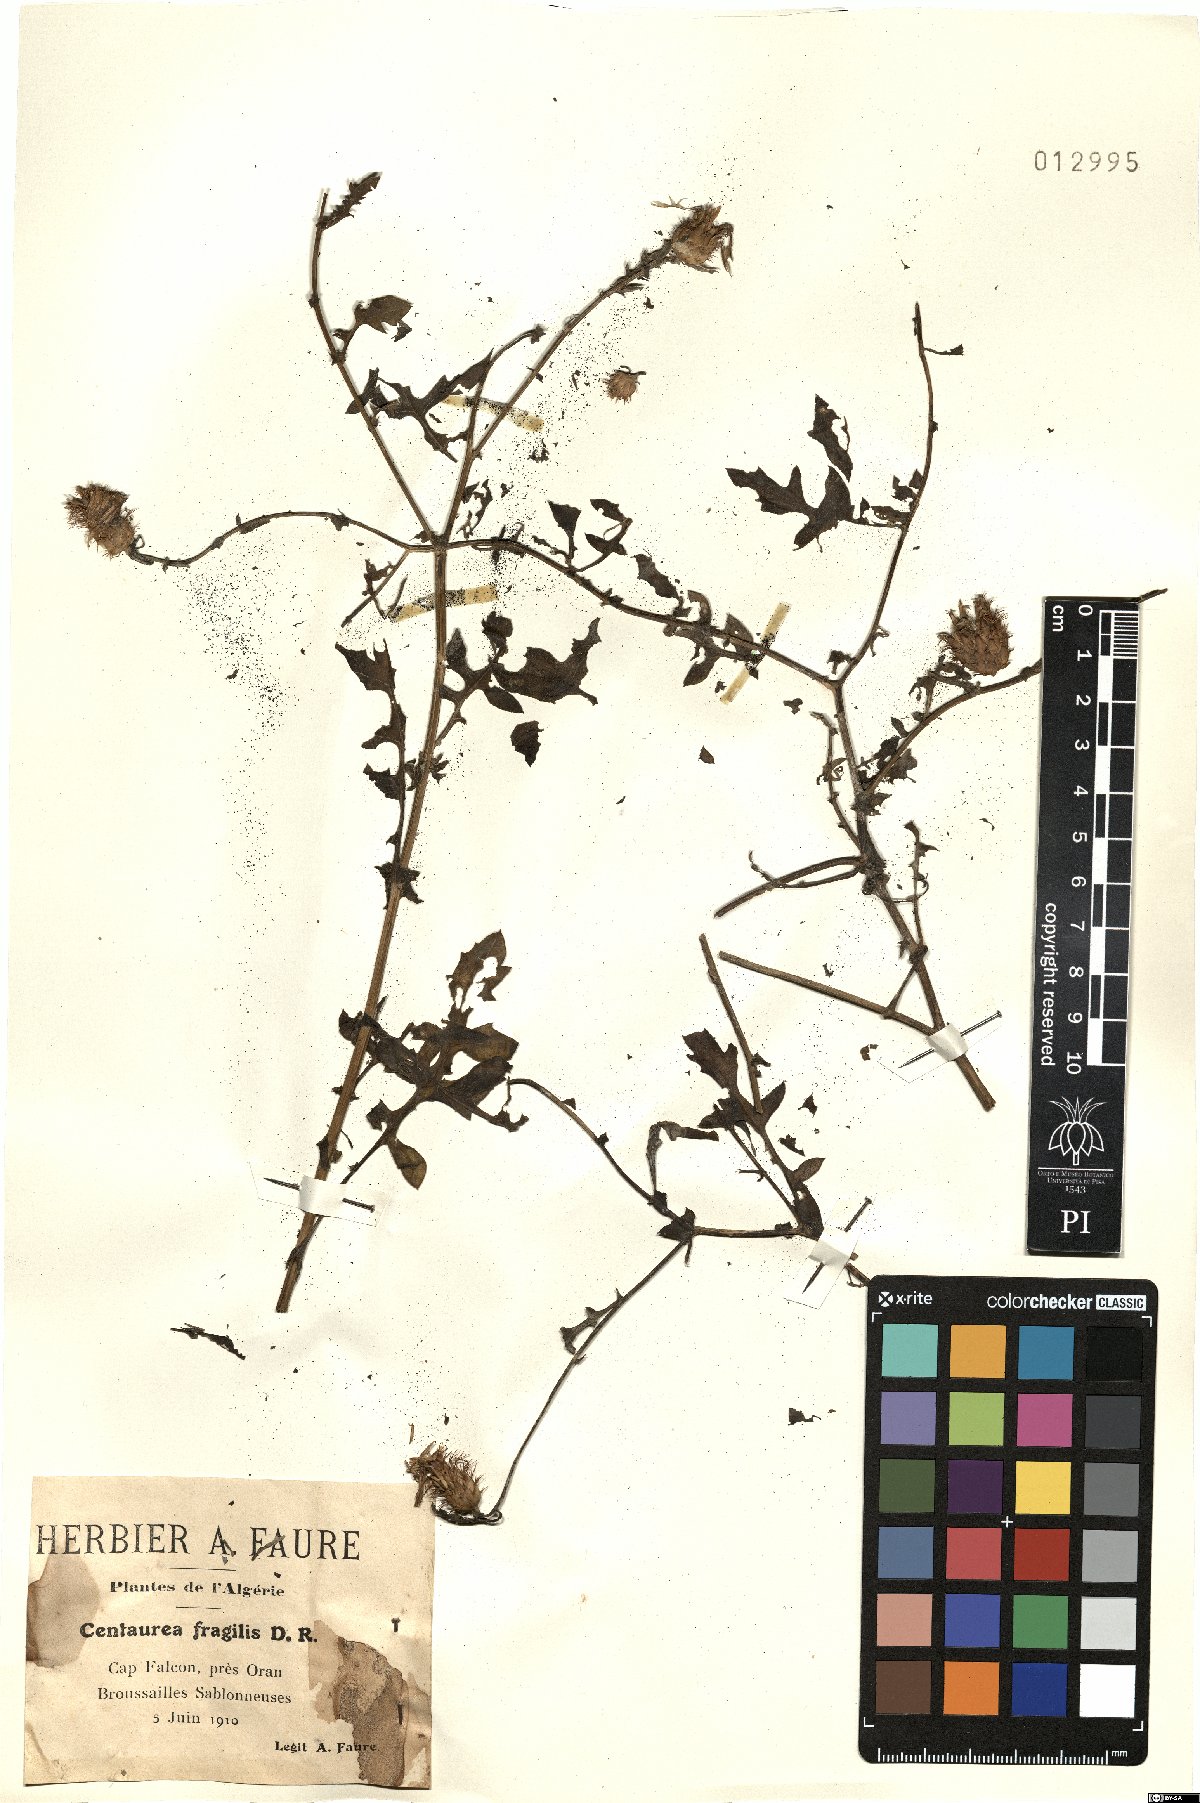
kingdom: Plantae
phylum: Tracheophyta
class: Magnoliopsida
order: Asterales
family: Asteraceae
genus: Centaurea
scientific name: Centaurea fragilis
